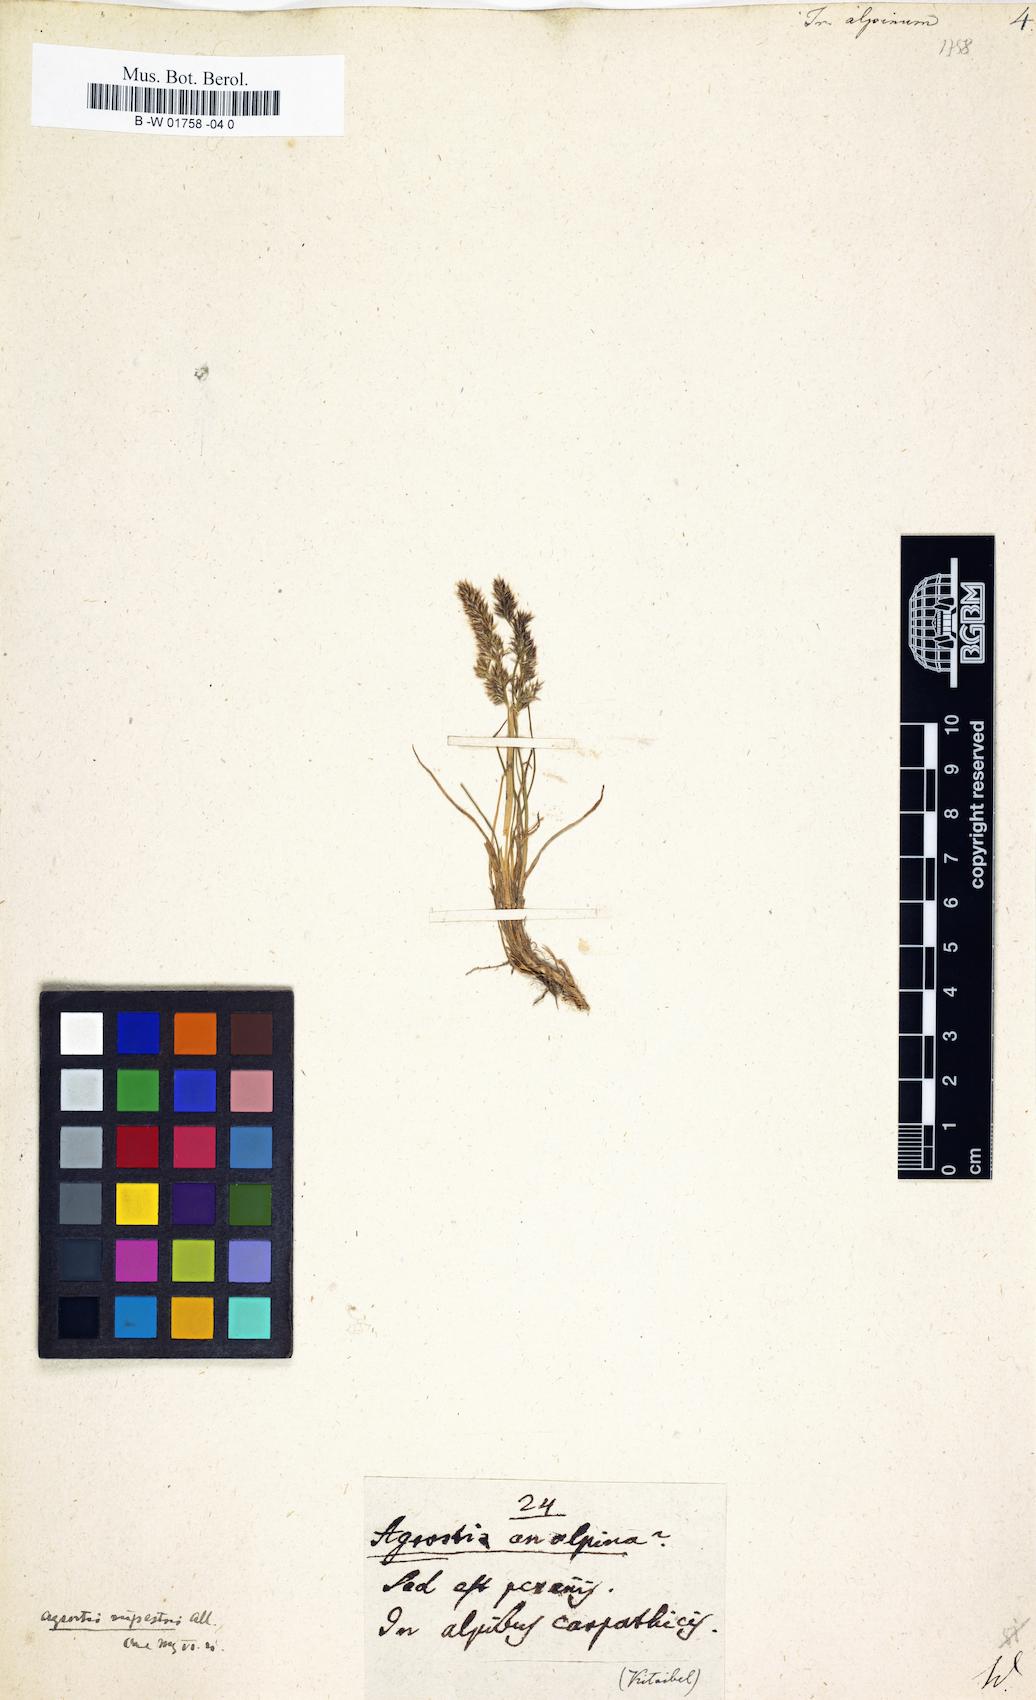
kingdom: Plantae
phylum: Tracheophyta
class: Liliopsida
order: Poales
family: Poaceae
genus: Agrostis
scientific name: Agrostis rupestris
